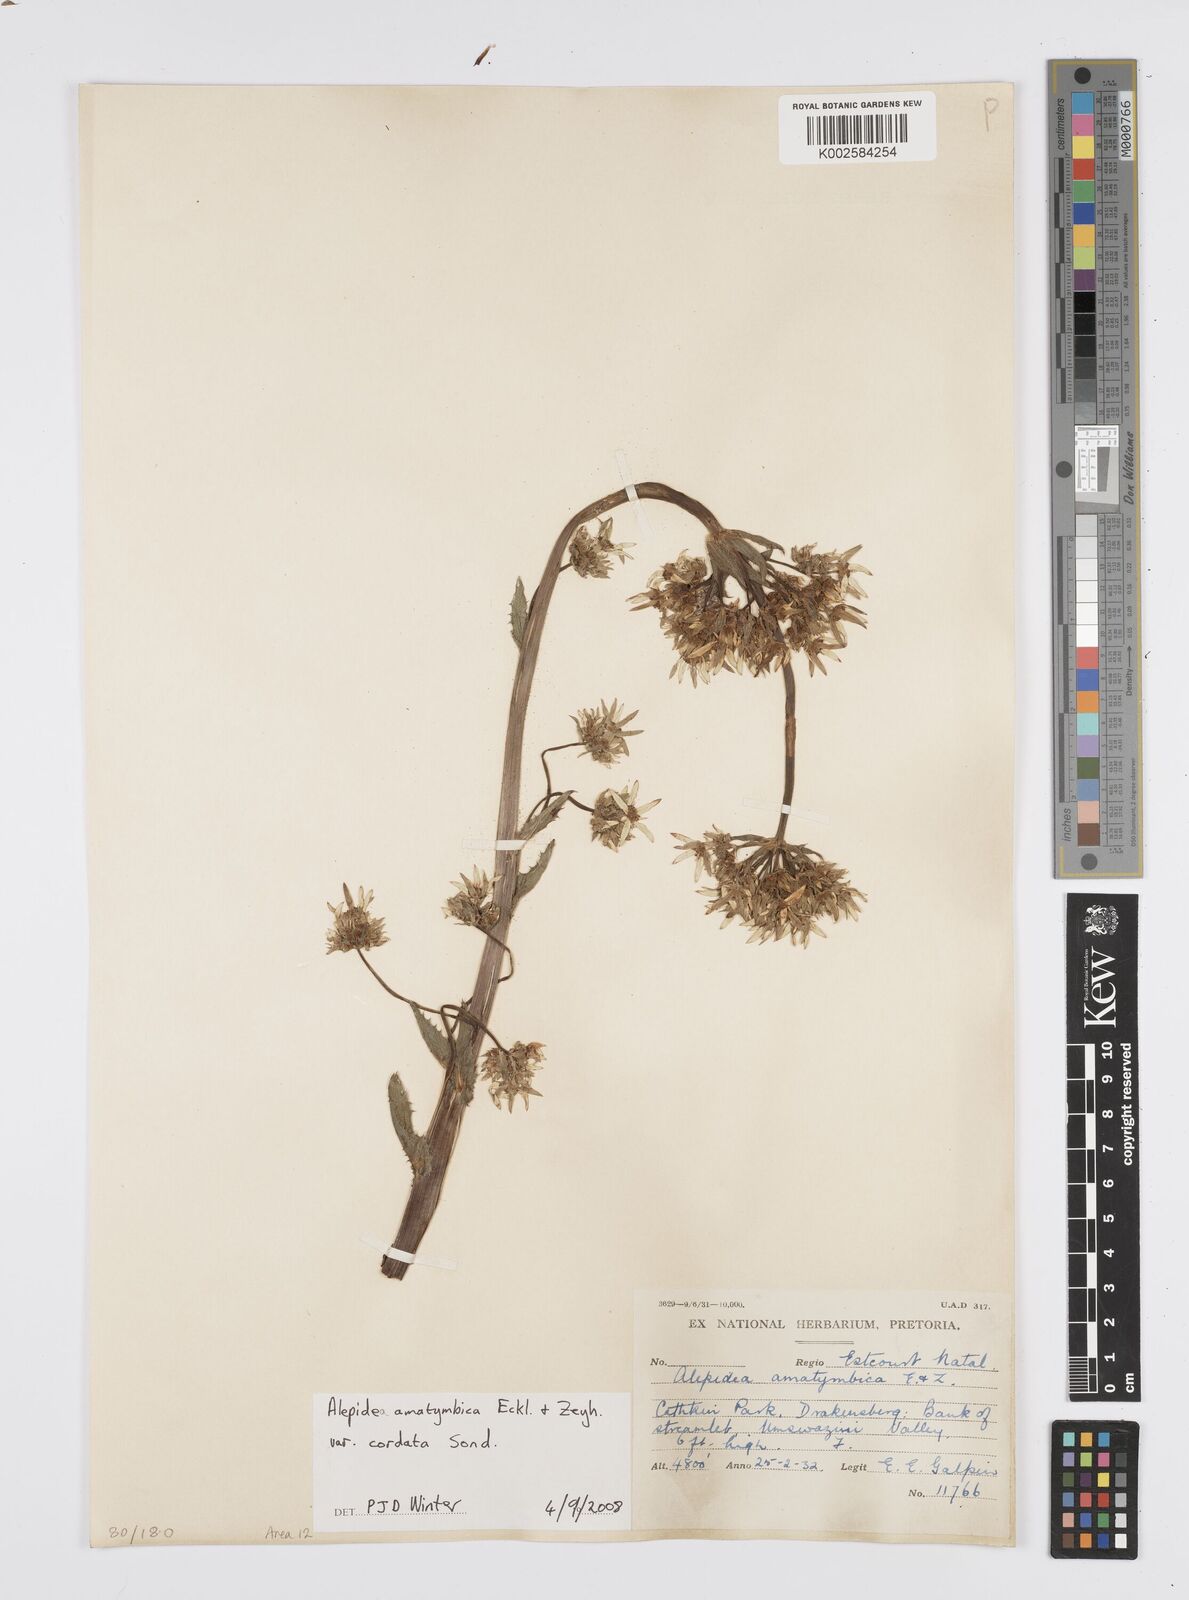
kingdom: Plantae
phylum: Tracheophyta
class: Magnoliopsida
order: Apiales
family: Apiaceae
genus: Alepidea
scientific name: Alepidea cordifolia
